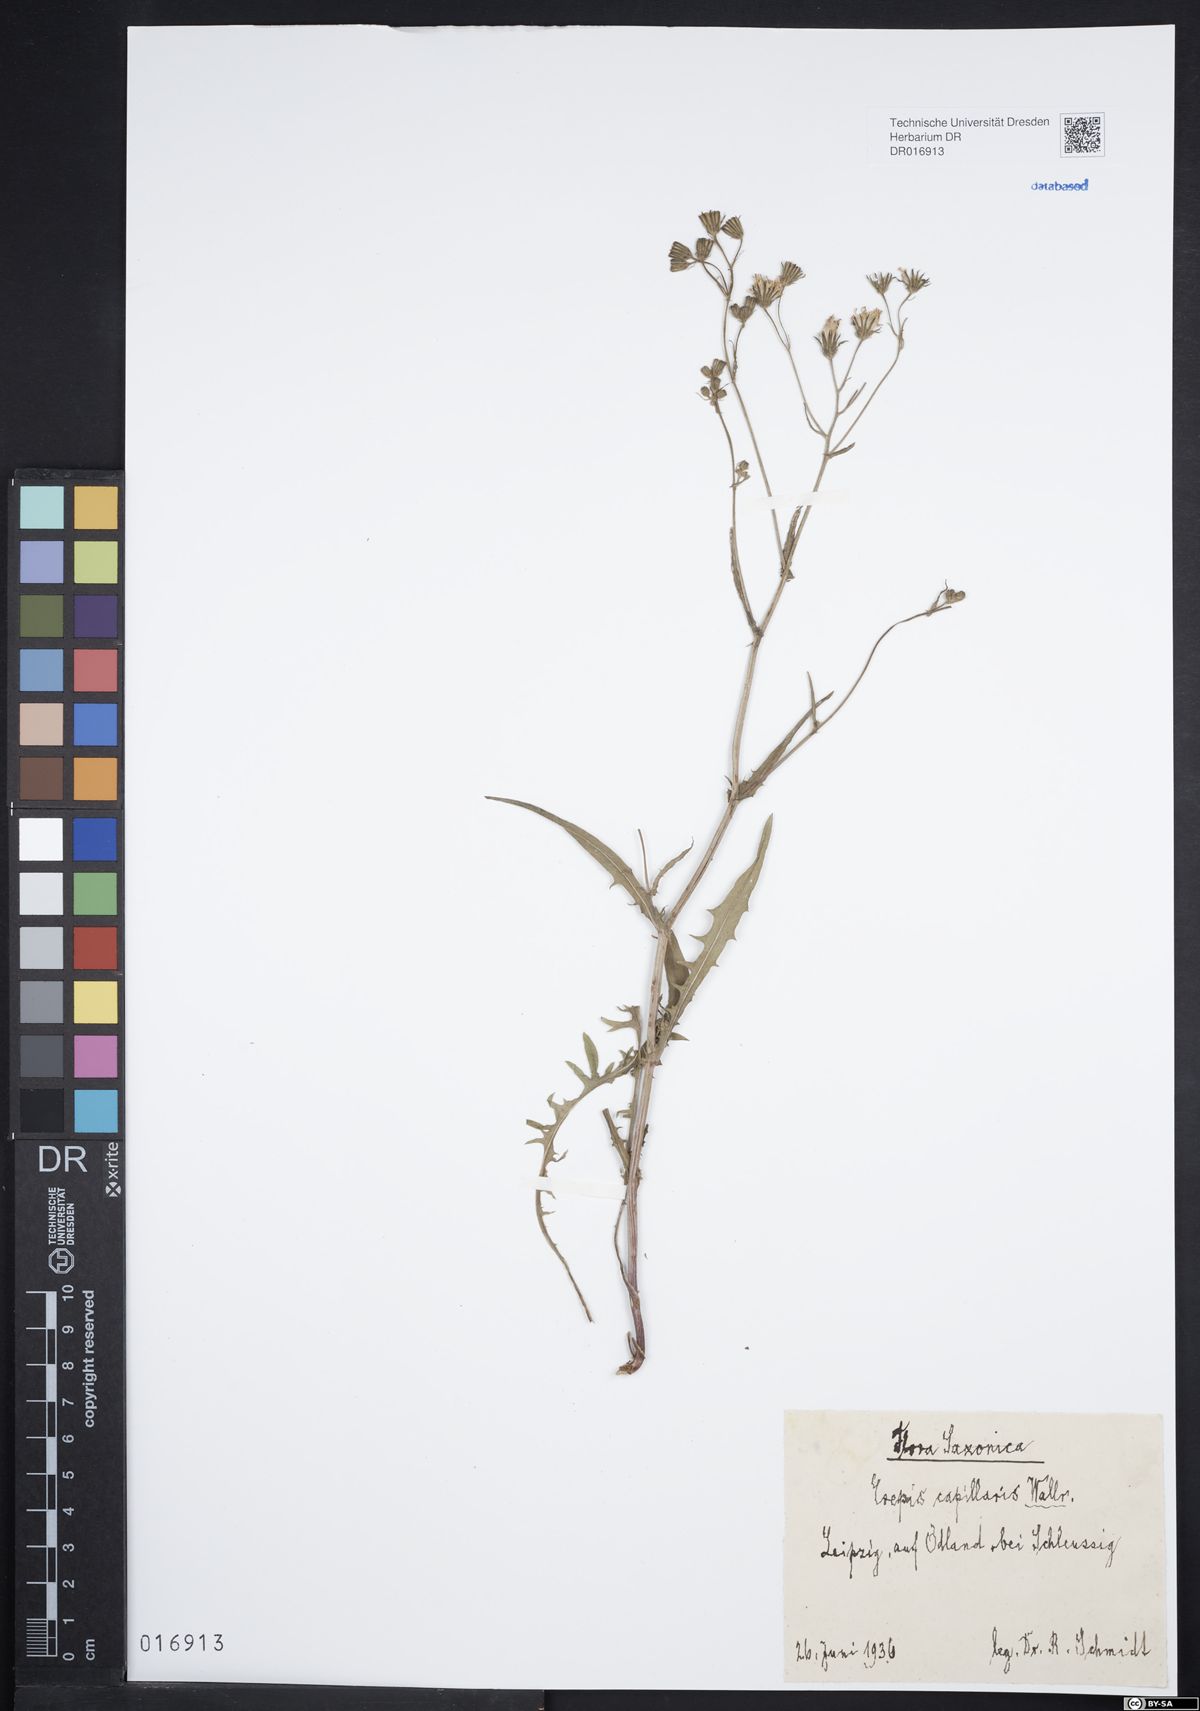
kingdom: Plantae
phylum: Tracheophyta
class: Magnoliopsida
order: Asterales
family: Asteraceae
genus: Crepis
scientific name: Crepis capillaris
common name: Smooth hawksbeard
